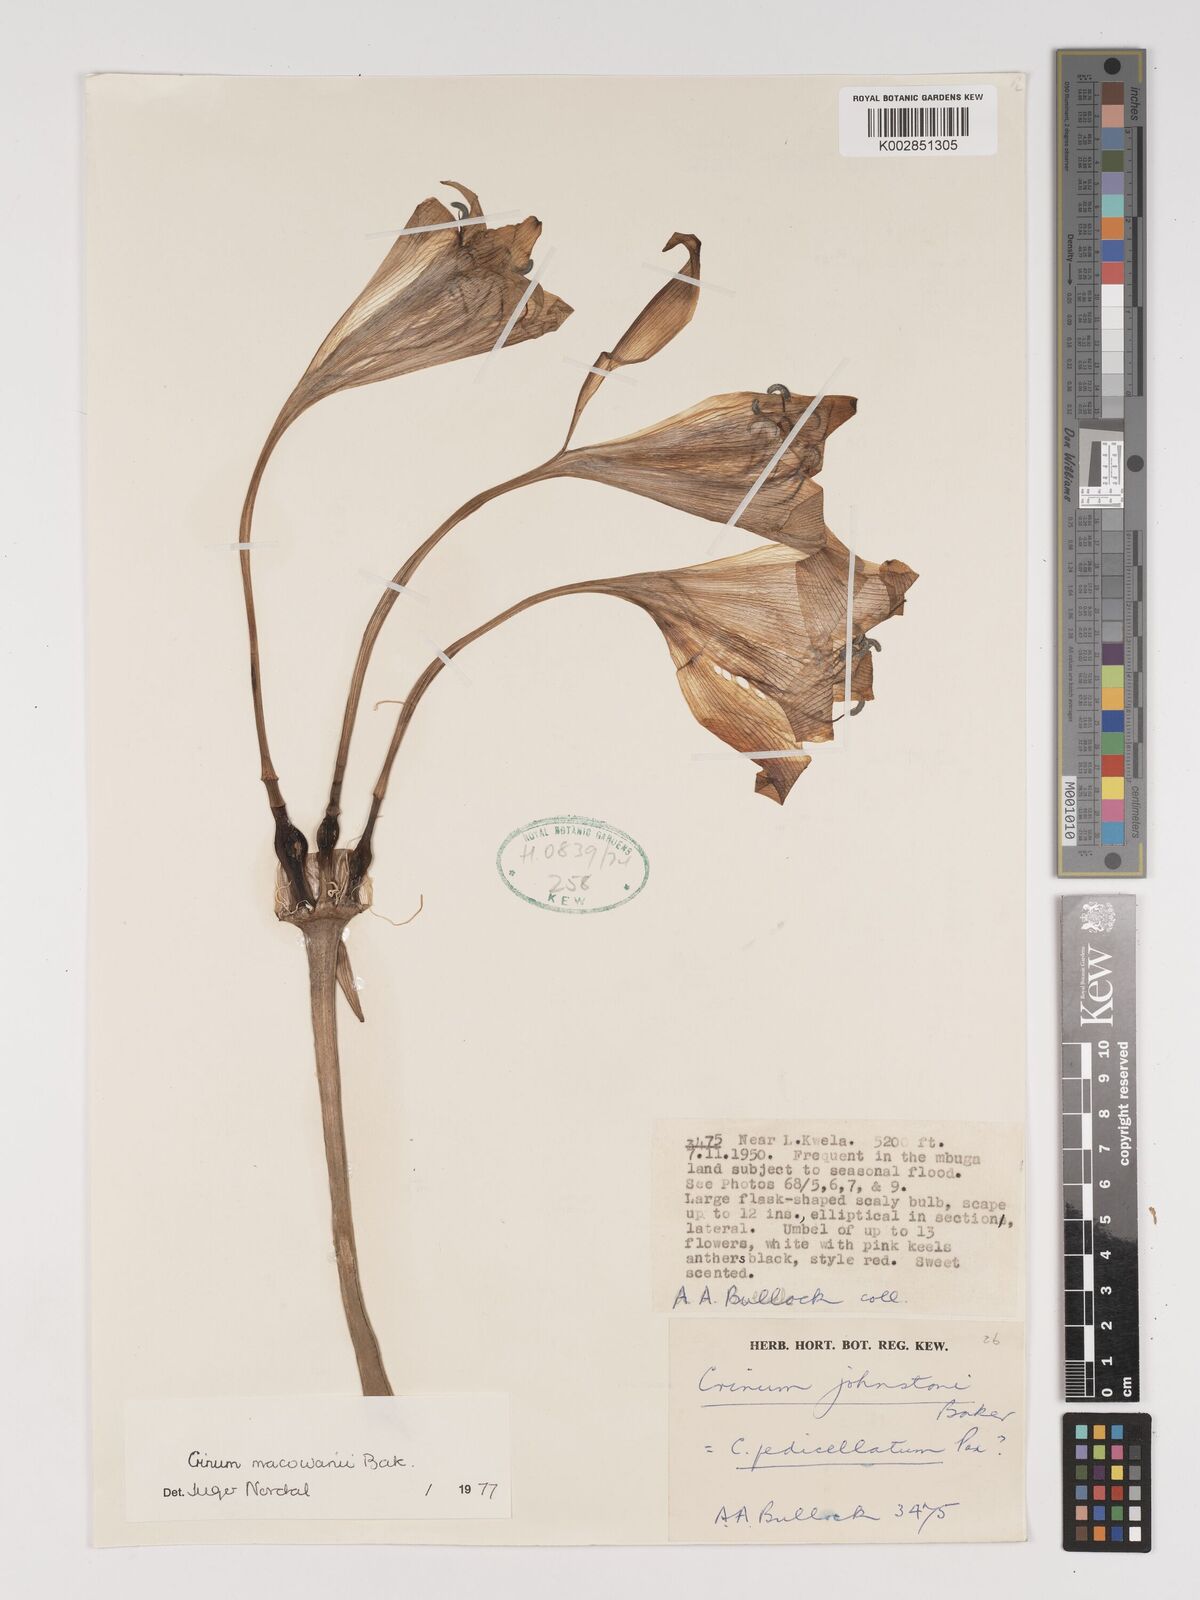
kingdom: Plantae
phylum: Tracheophyta
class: Liliopsida
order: Asparagales
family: Amaryllidaceae
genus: Crinum
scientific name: Crinum macowanii
